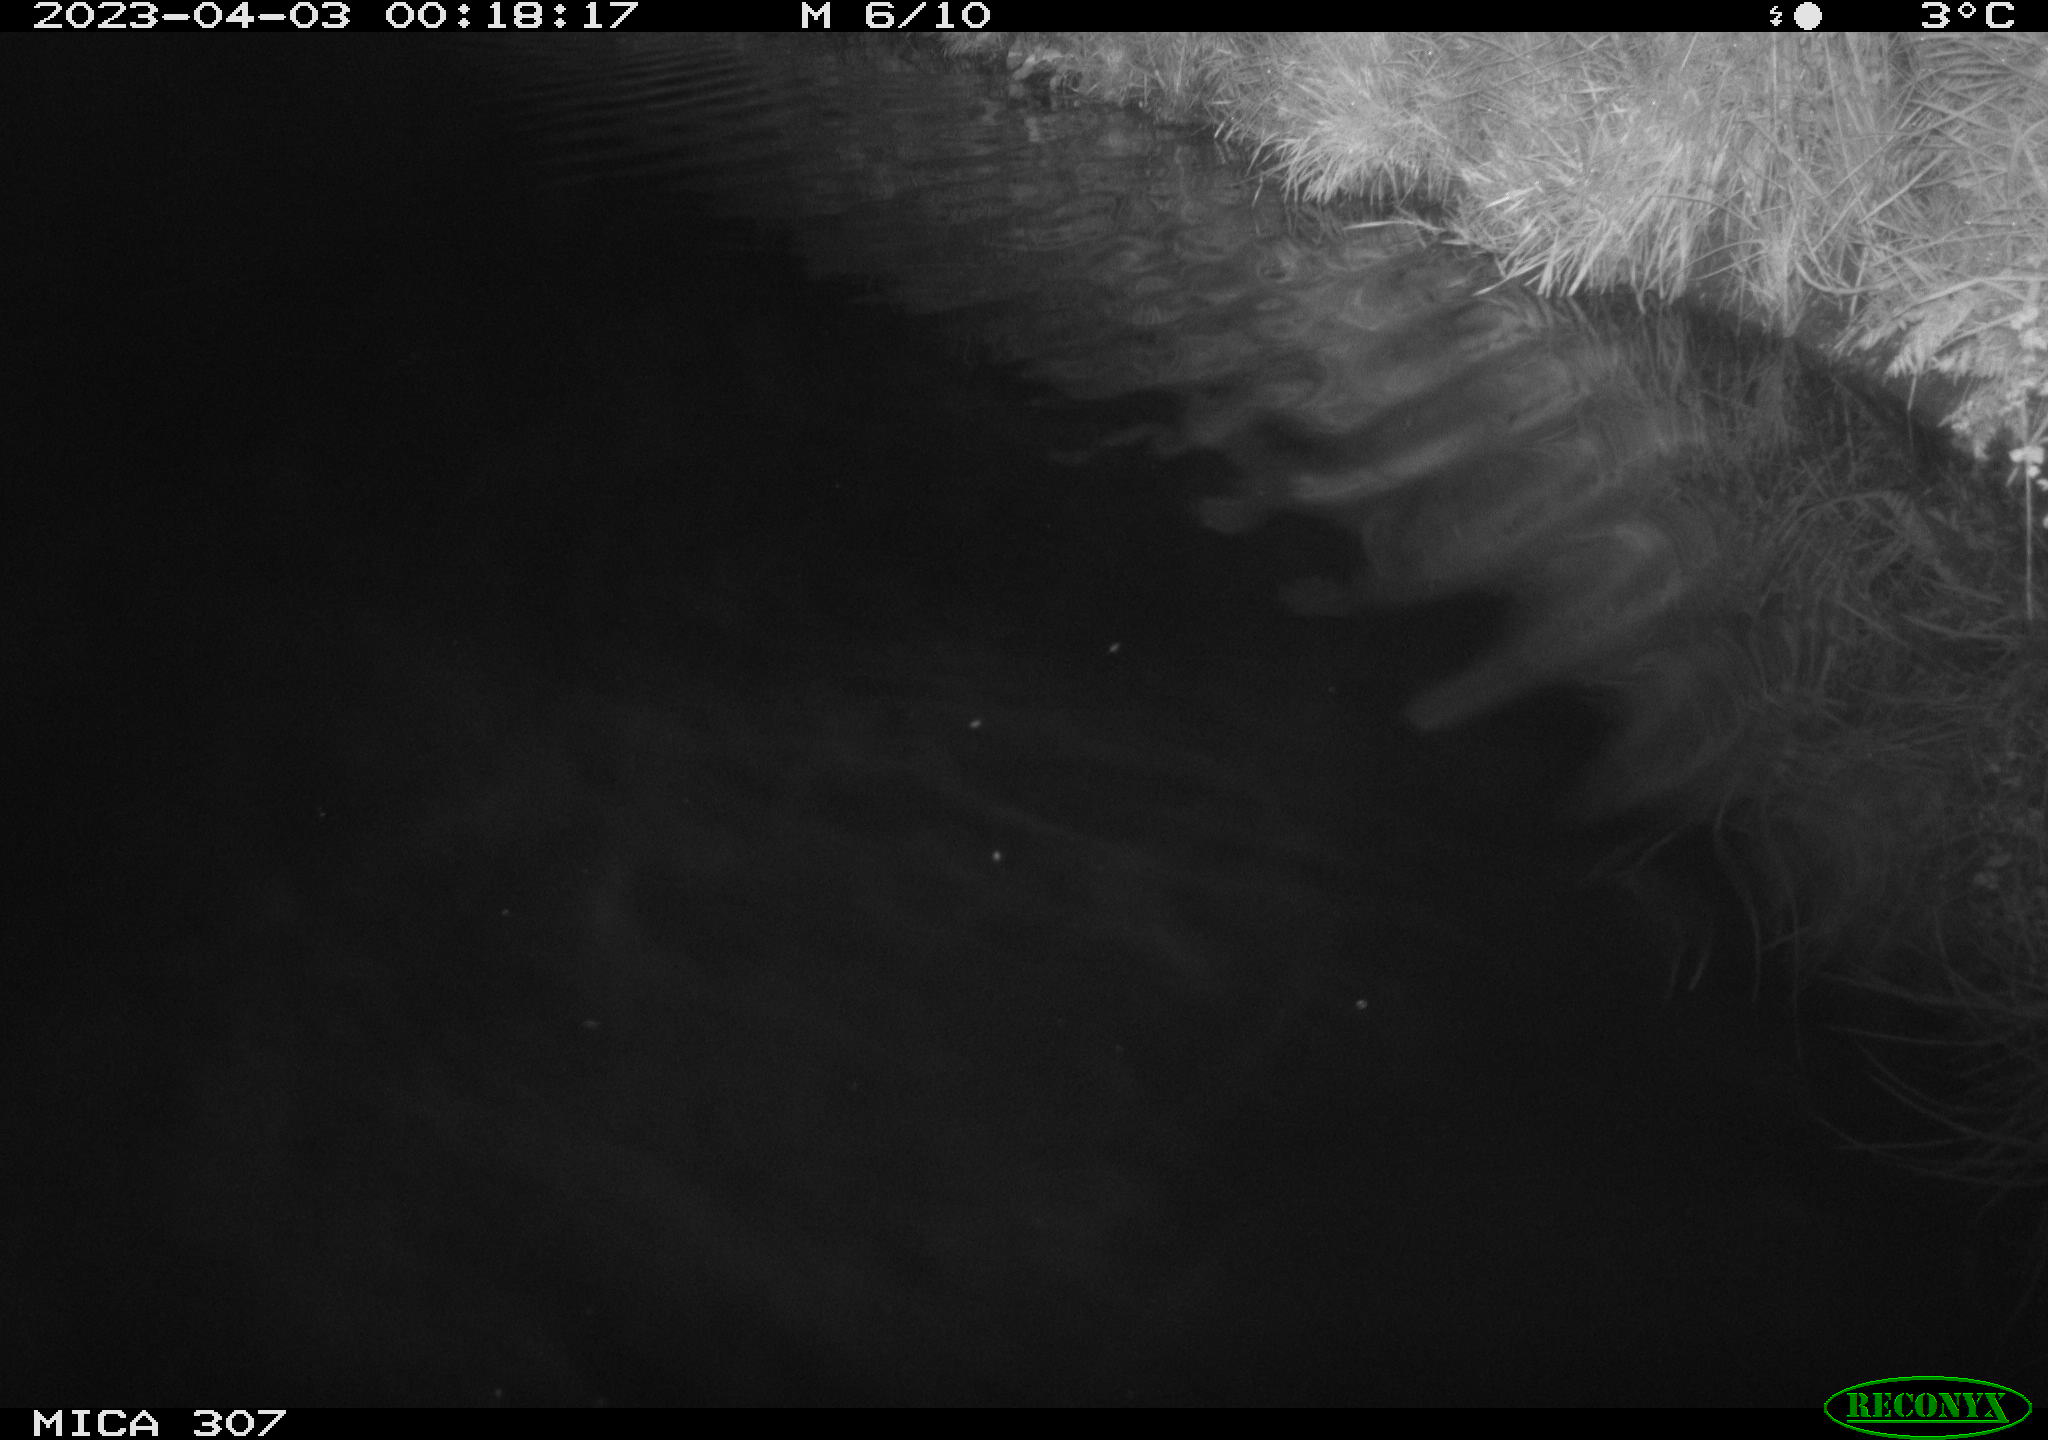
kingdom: Animalia
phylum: Chordata
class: Aves
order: Anseriformes
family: Anatidae
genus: Anas
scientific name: Anas
